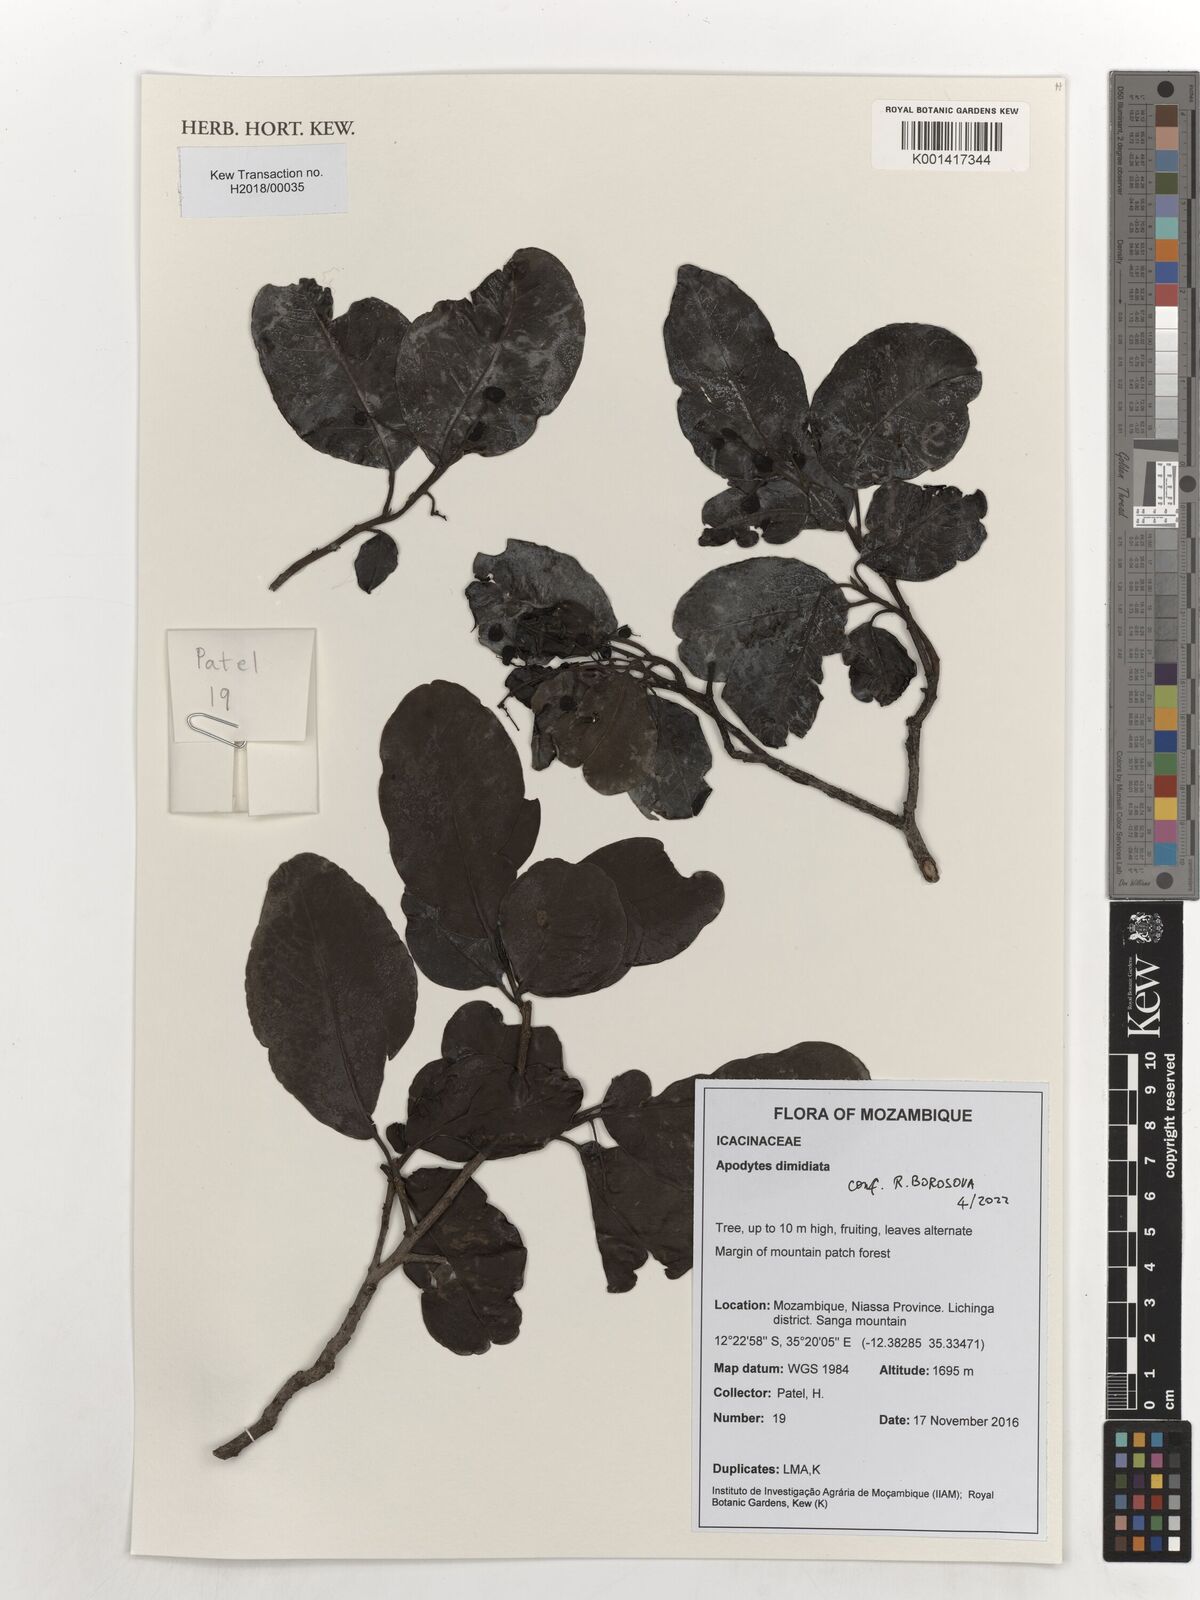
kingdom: Plantae
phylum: Tracheophyta
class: Magnoliopsida
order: Metteniusales
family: Metteniusaceae
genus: Apodytes
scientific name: Apodytes dimidiata
